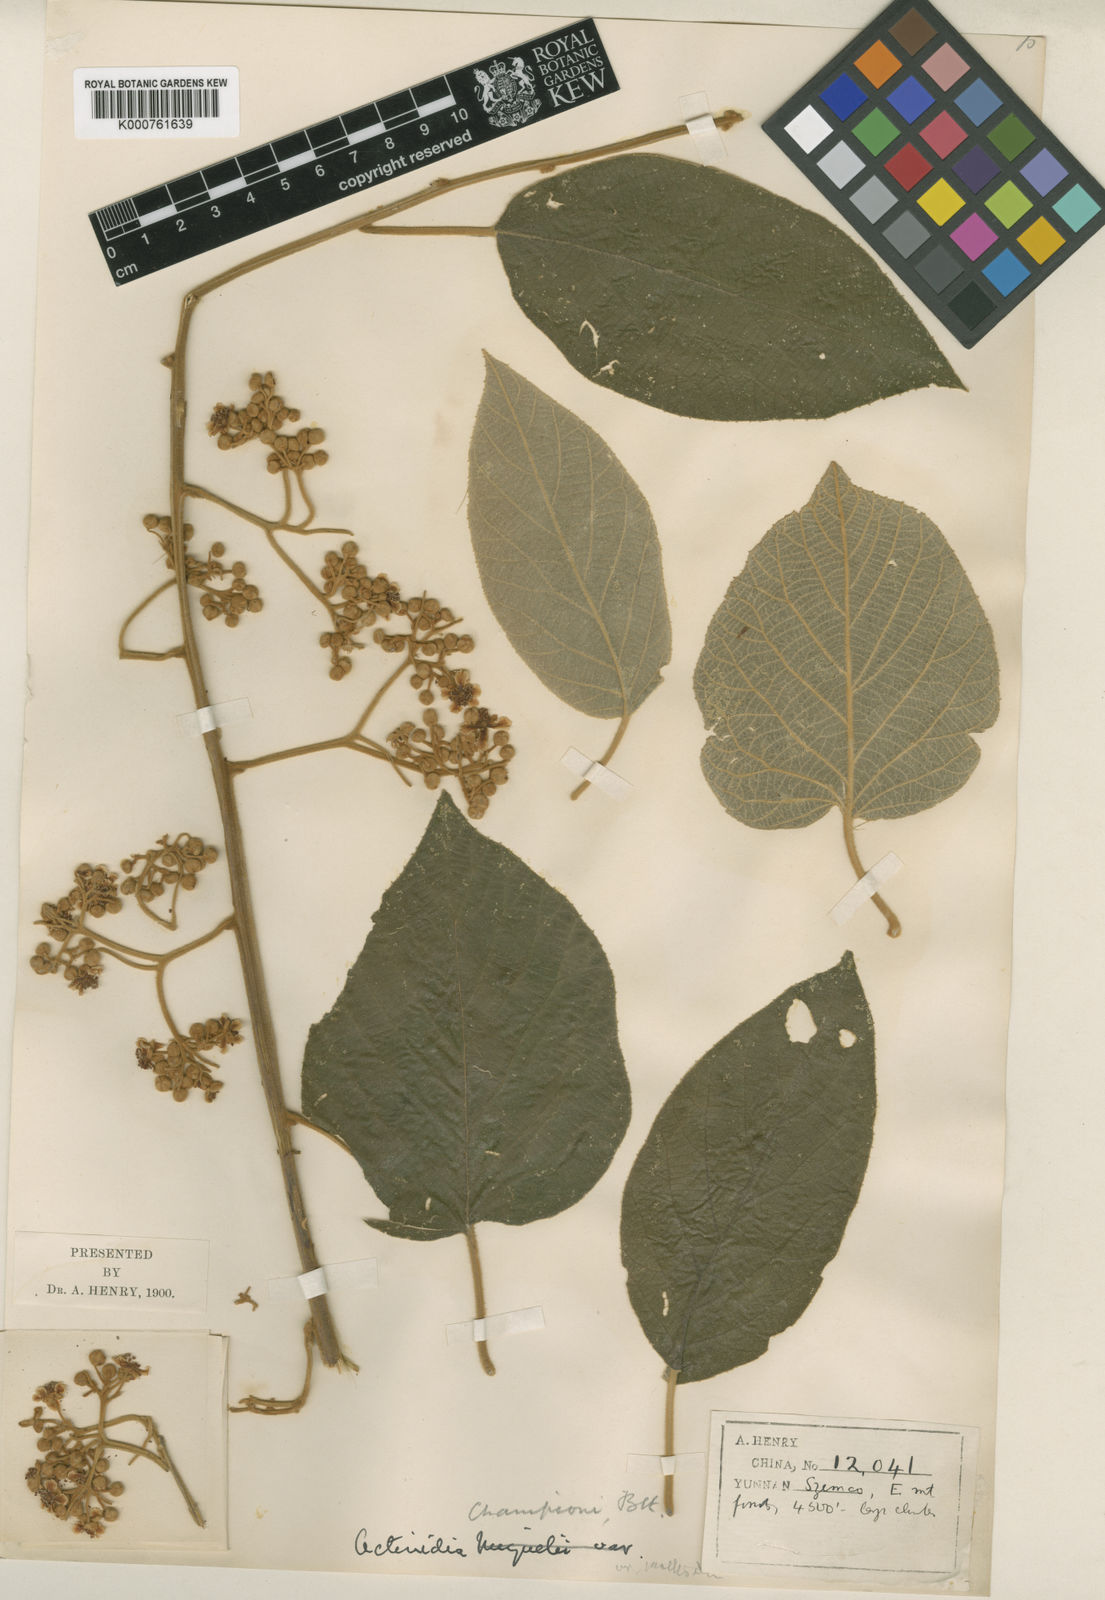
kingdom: Plantae
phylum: Tracheophyta
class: Magnoliopsida
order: Ericales
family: Actinidiaceae
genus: Actinidia
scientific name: Actinidia
